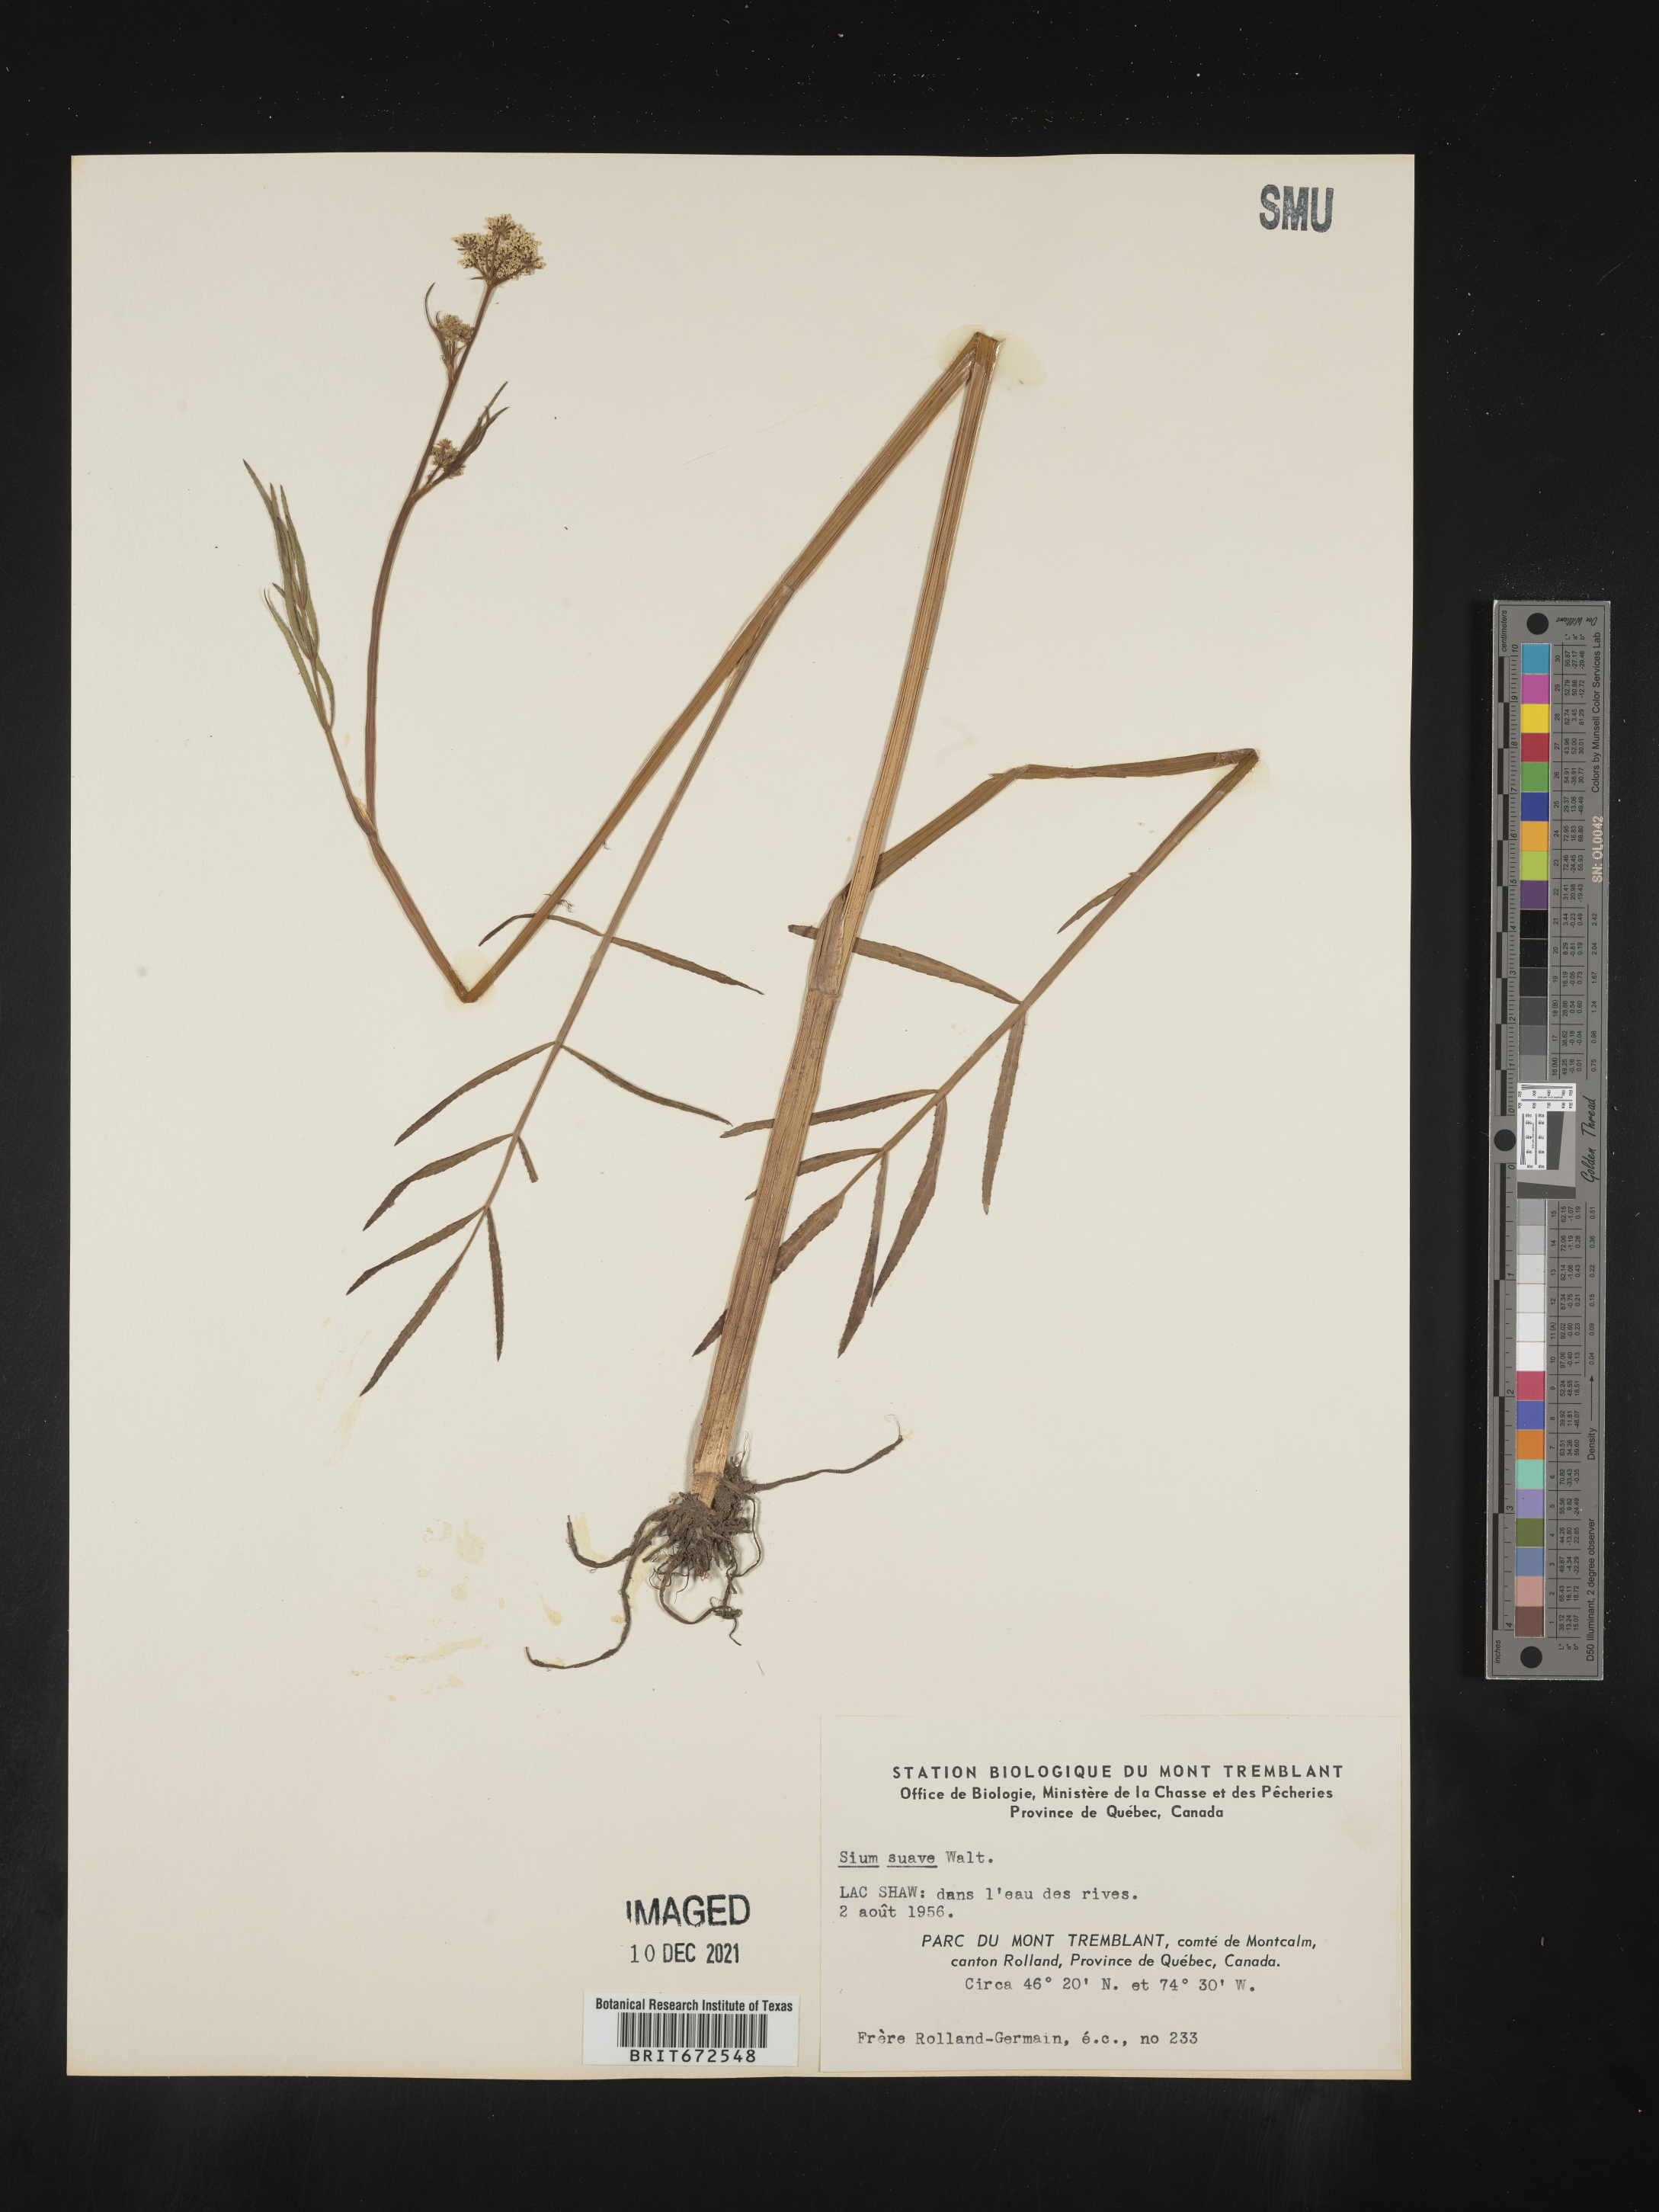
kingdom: Plantae
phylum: Tracheophyta
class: Magnoliopsida
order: Apiales
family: Apiaceae
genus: Sium
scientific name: Sium suave
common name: Hemlock water-parsnip
